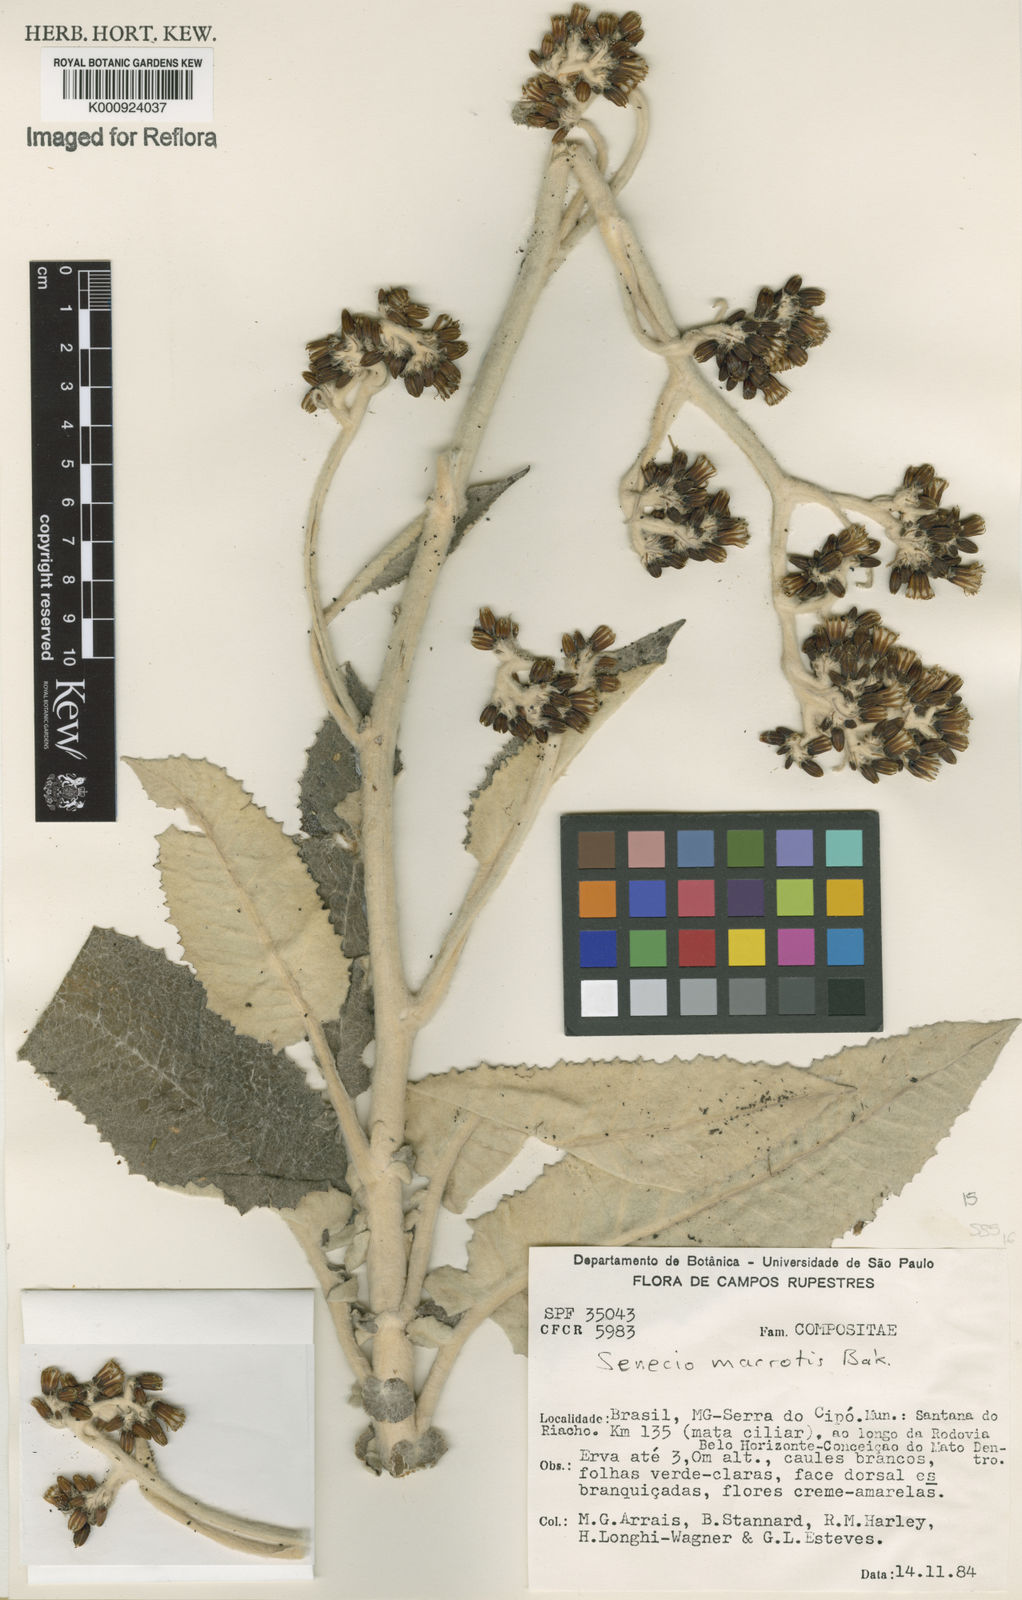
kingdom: Plantae
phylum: Tracheophyta
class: Magnoliopsida
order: Asterales
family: Asteraceae
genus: Senecio
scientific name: Senecio macrotis
